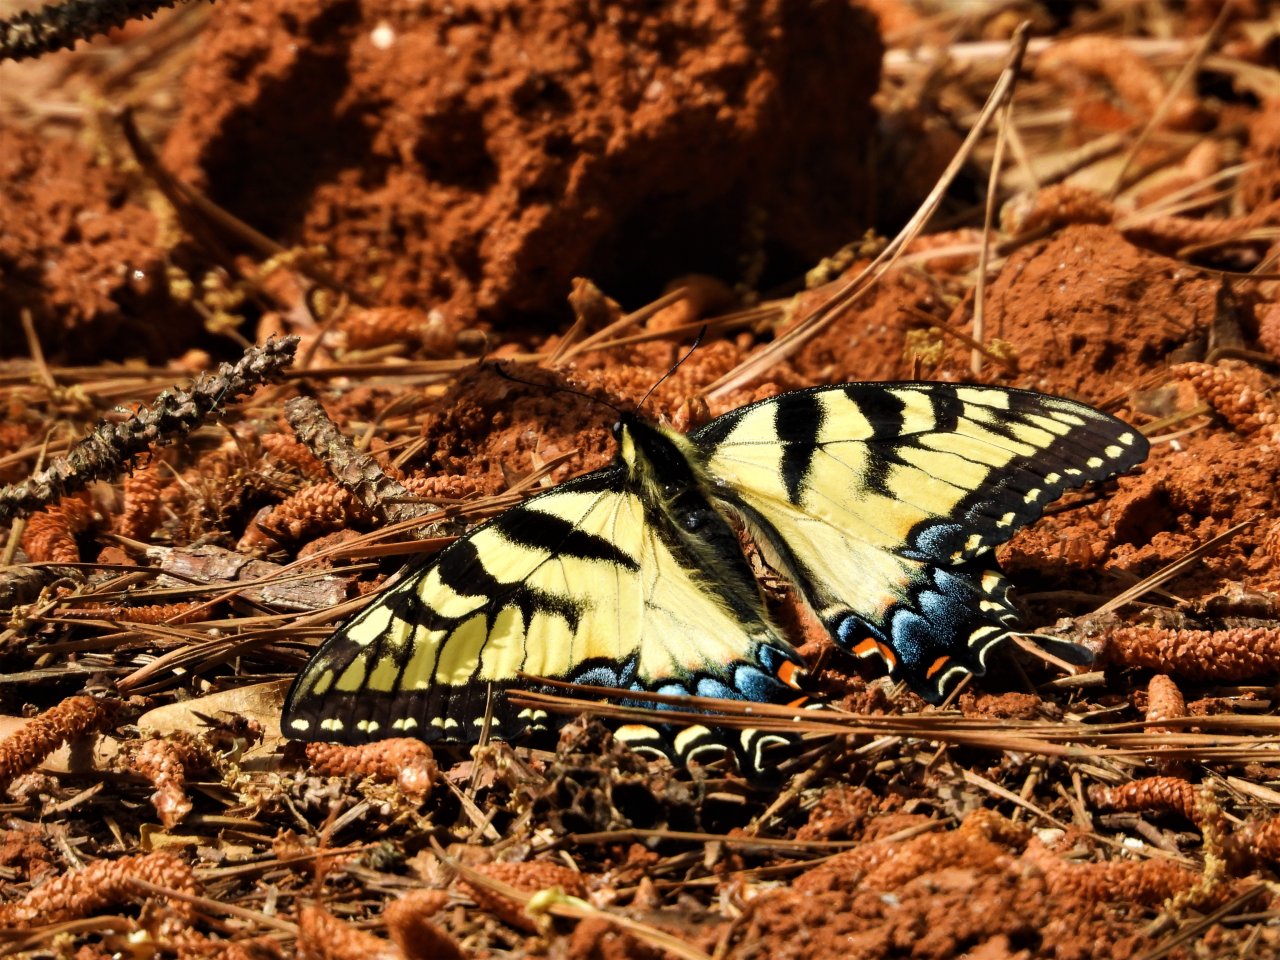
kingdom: Animalia
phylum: Arthropoda
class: Insecta
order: Lepidoptera
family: Papilionidae
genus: Pterourus
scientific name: Pterourus glaucus
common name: Eastern Tiger Swallowtail
